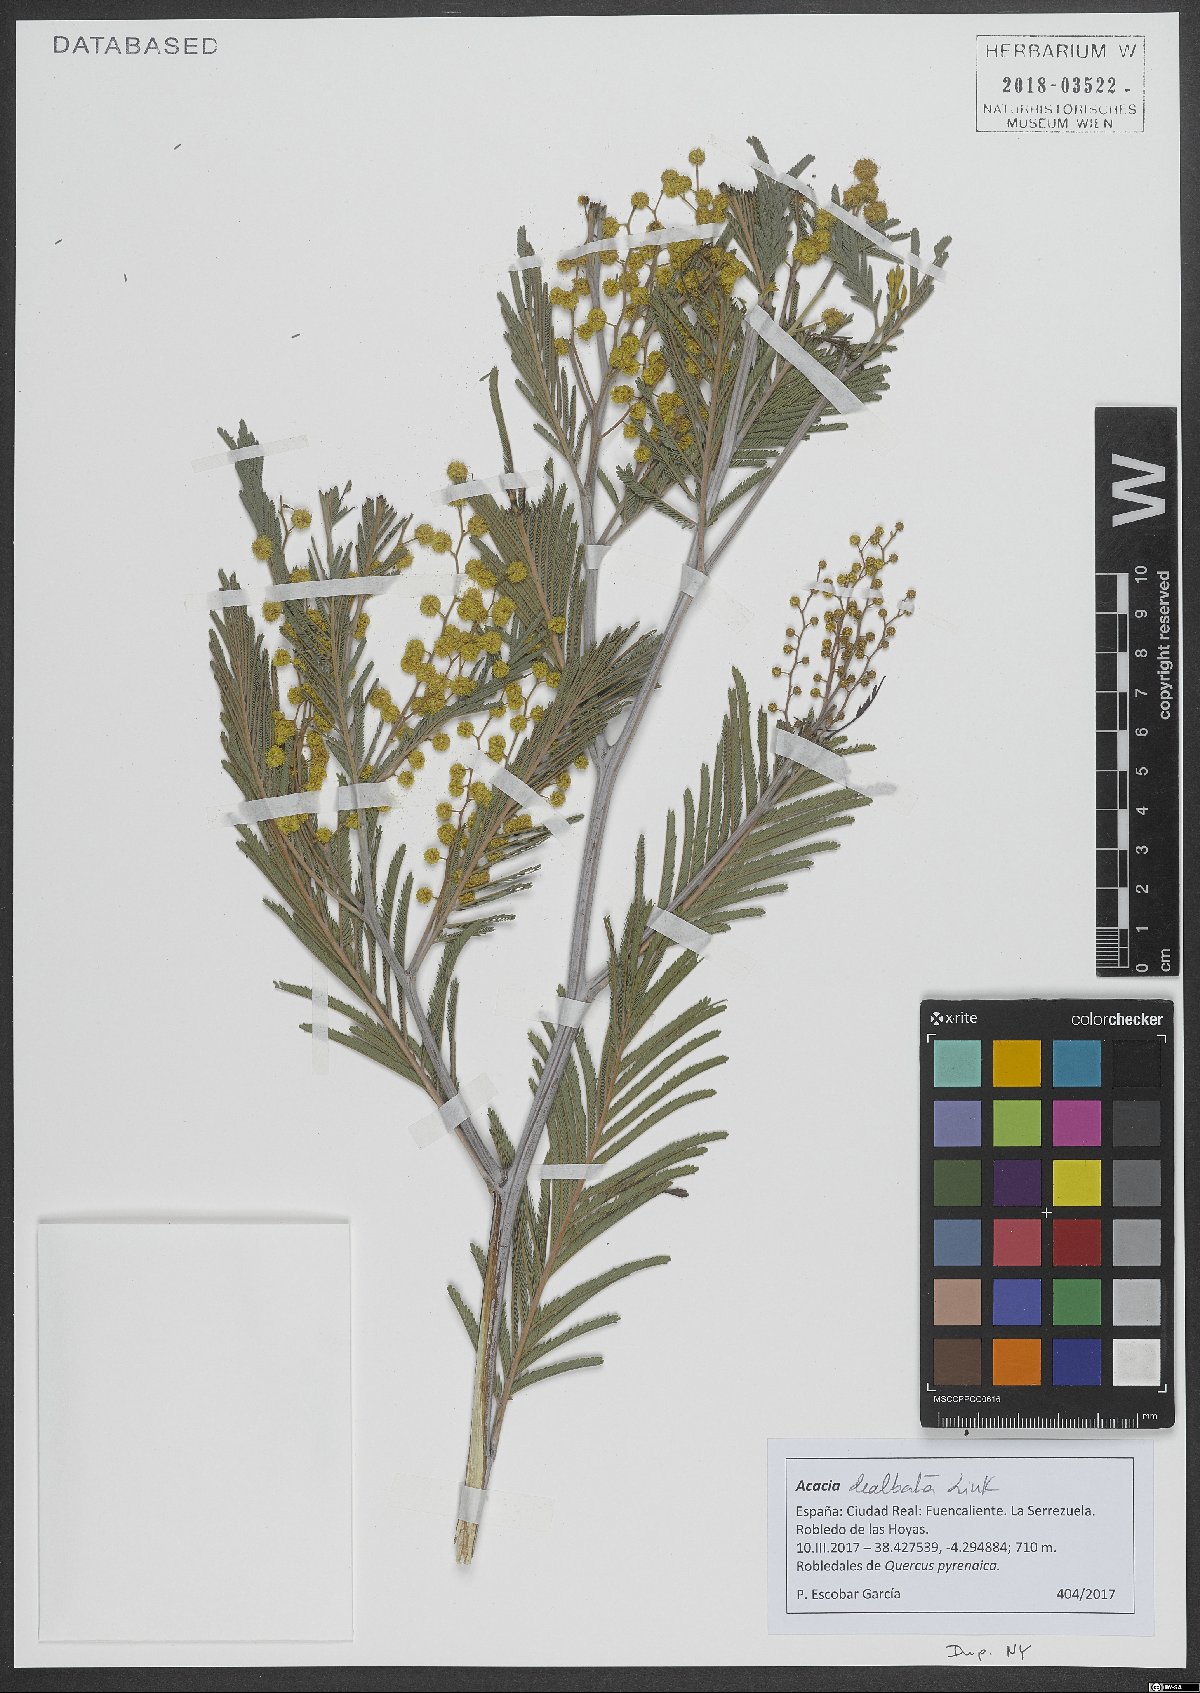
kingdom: Plantae
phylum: Tracheophyta
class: Magnoliopsida
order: Fabales
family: Fabaceae
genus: Acacia
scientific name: Acacia dealbata
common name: Silver wattle
